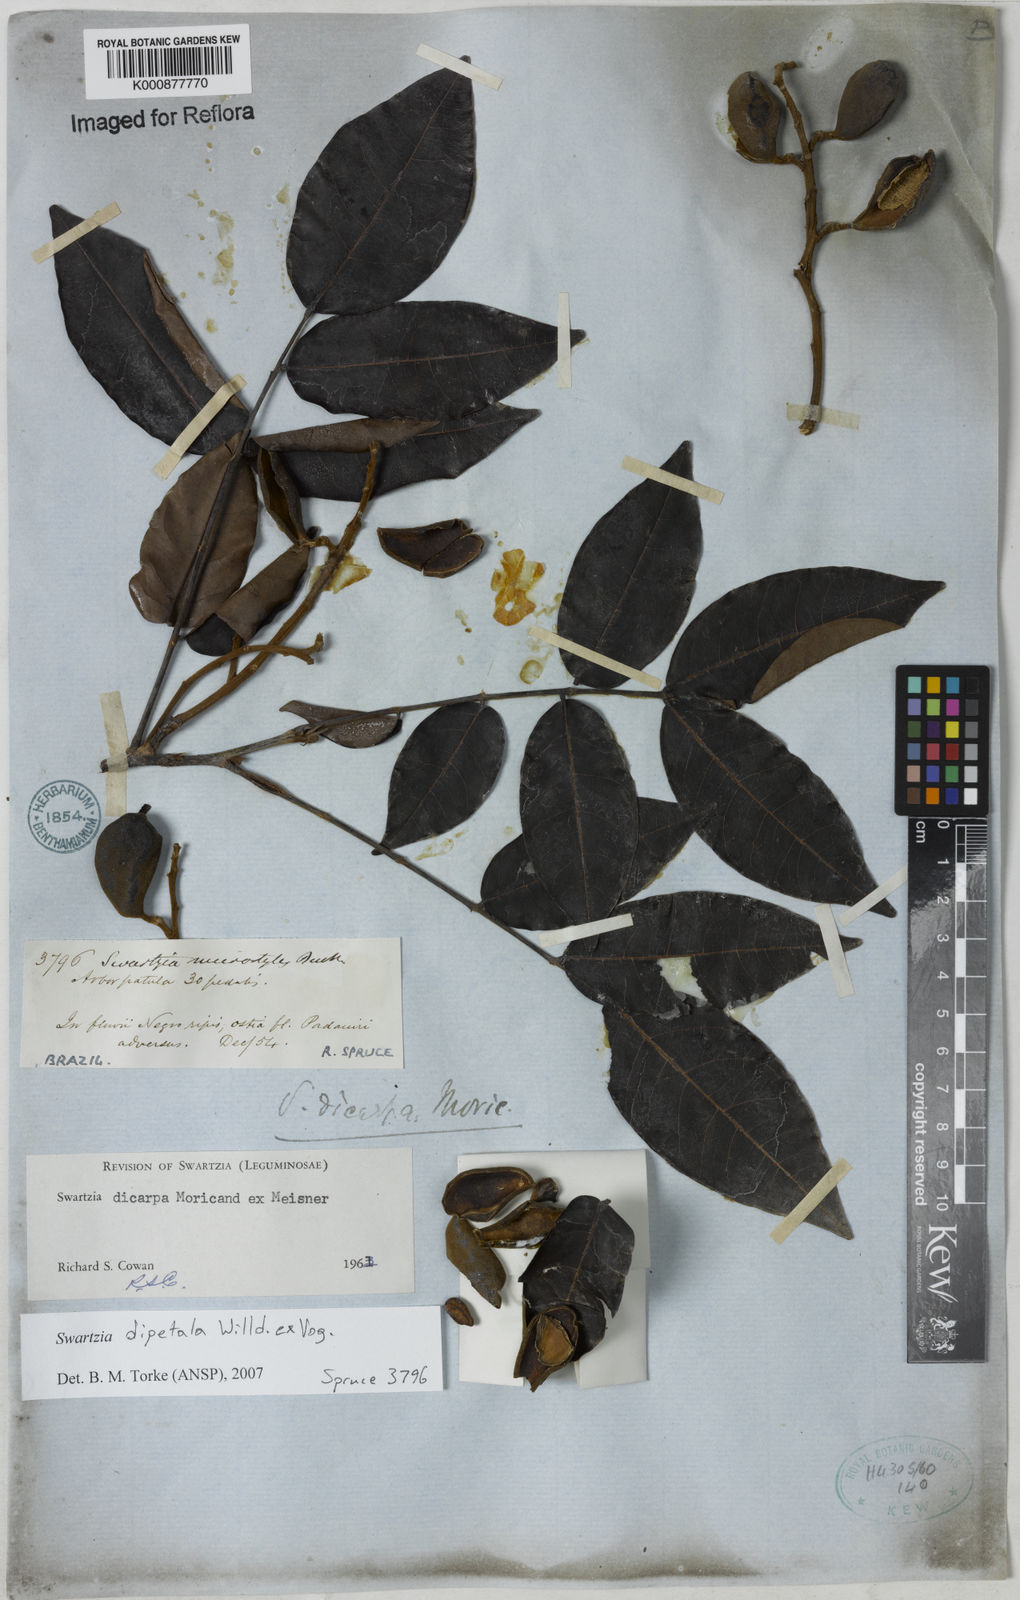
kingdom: Plantae
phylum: Tracheophyta
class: Magnoliopsida
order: Fabales
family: Fabaceae
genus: Swartzia
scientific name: Swartzia dipetala
